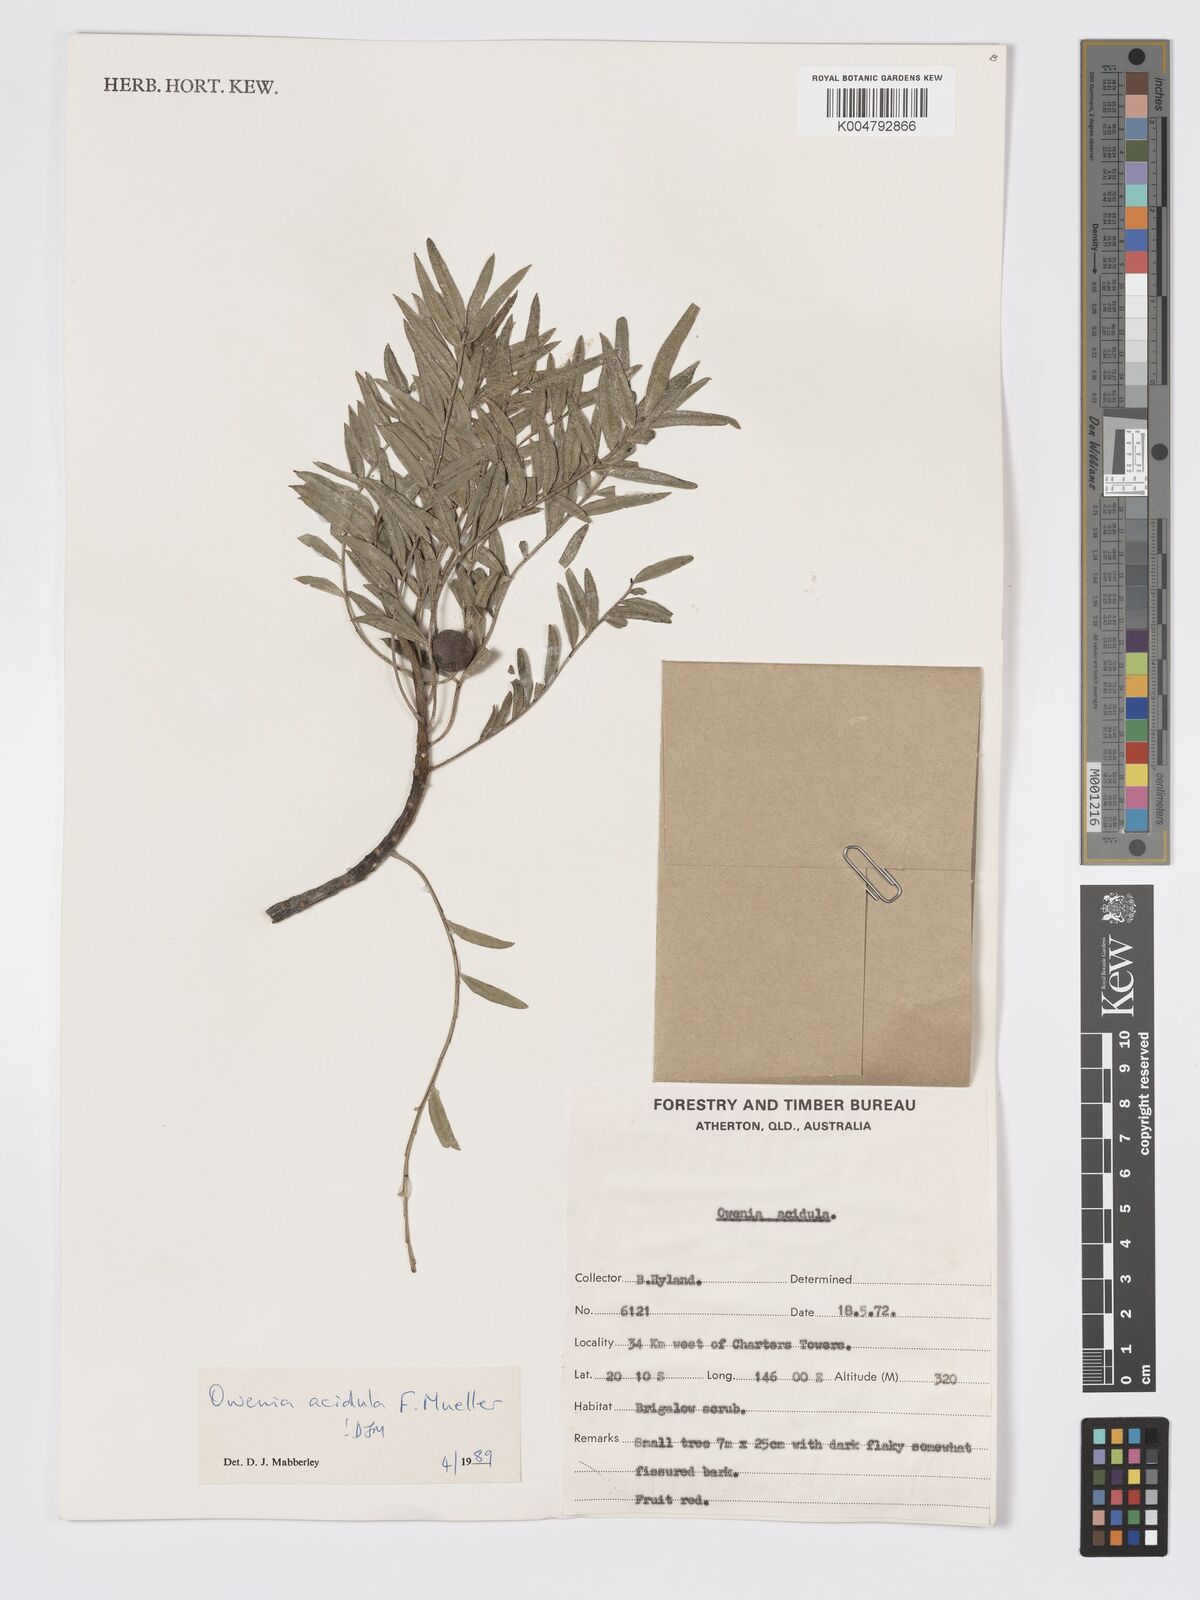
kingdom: Plantae
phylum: Tracheophyta
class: Magnoliopsida
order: Sapindales
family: Meliaceae
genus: Owenia
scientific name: Owenia acidula
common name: Tulipwood
